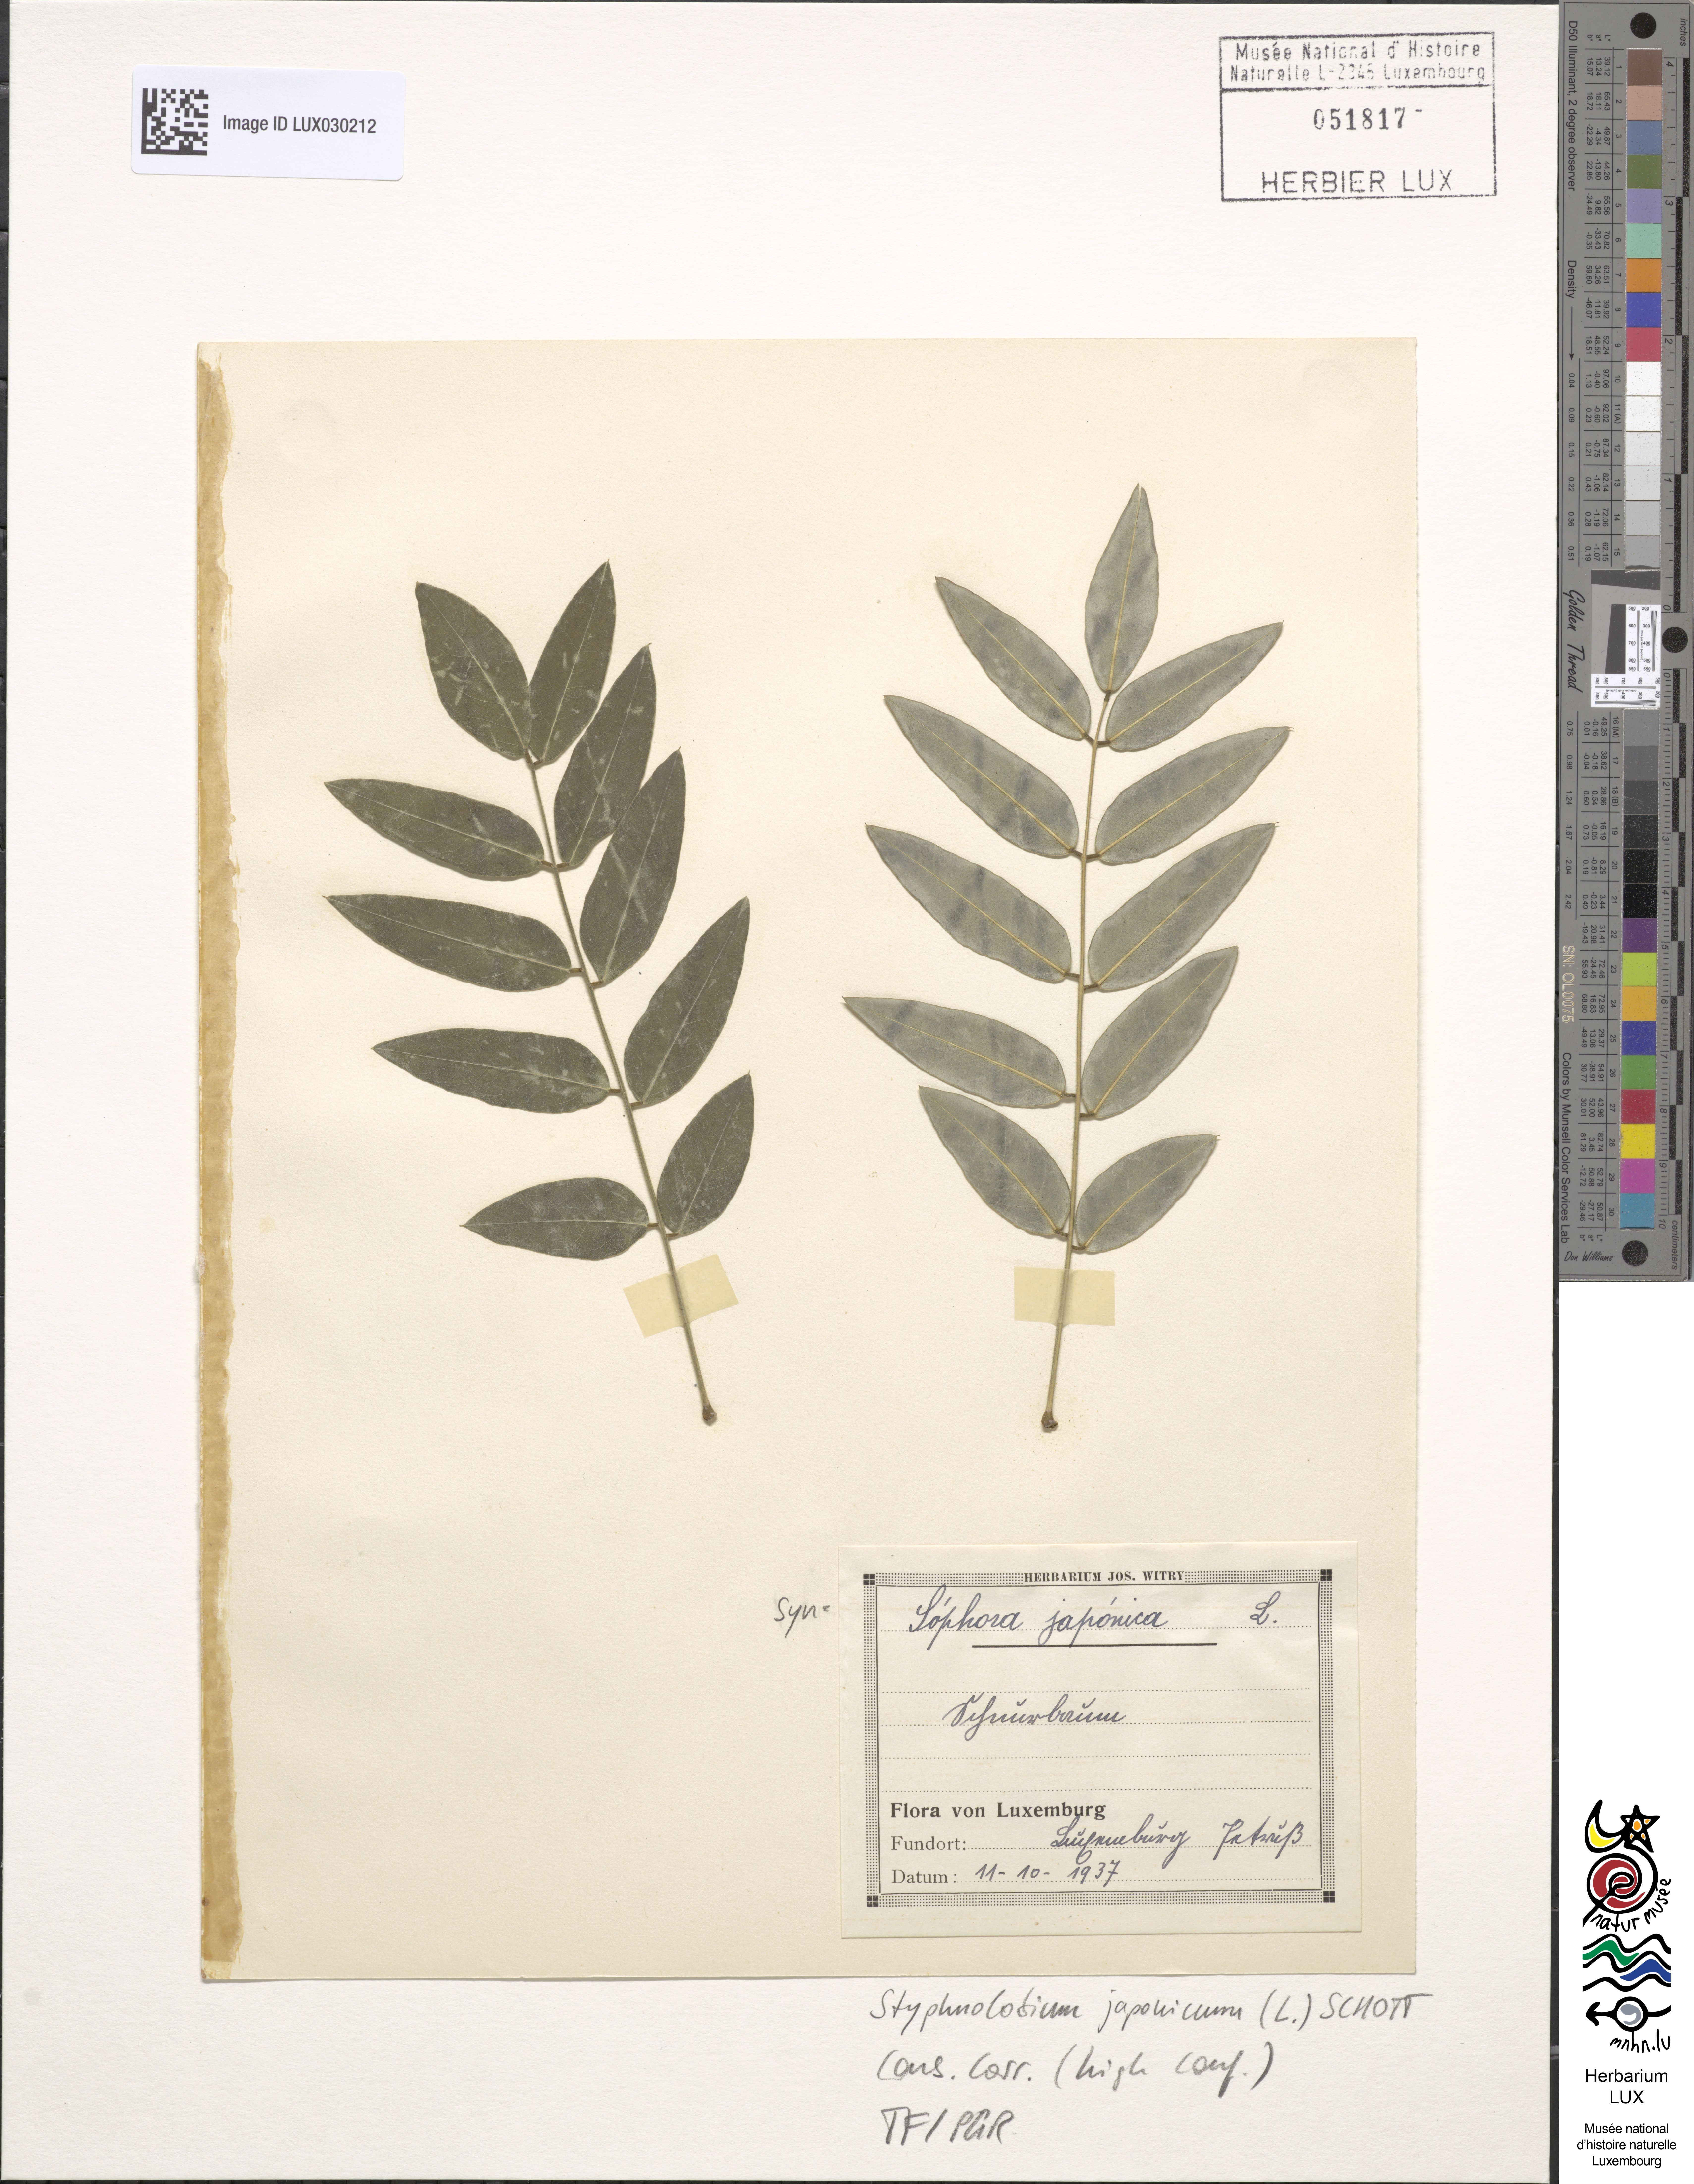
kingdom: Plantae
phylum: Tracheophyta
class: Magnoliopsida
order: Fabales
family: Fabaceae
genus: Styphnolobium
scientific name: Styphnolobium japonicum
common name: Chinese scholartree
